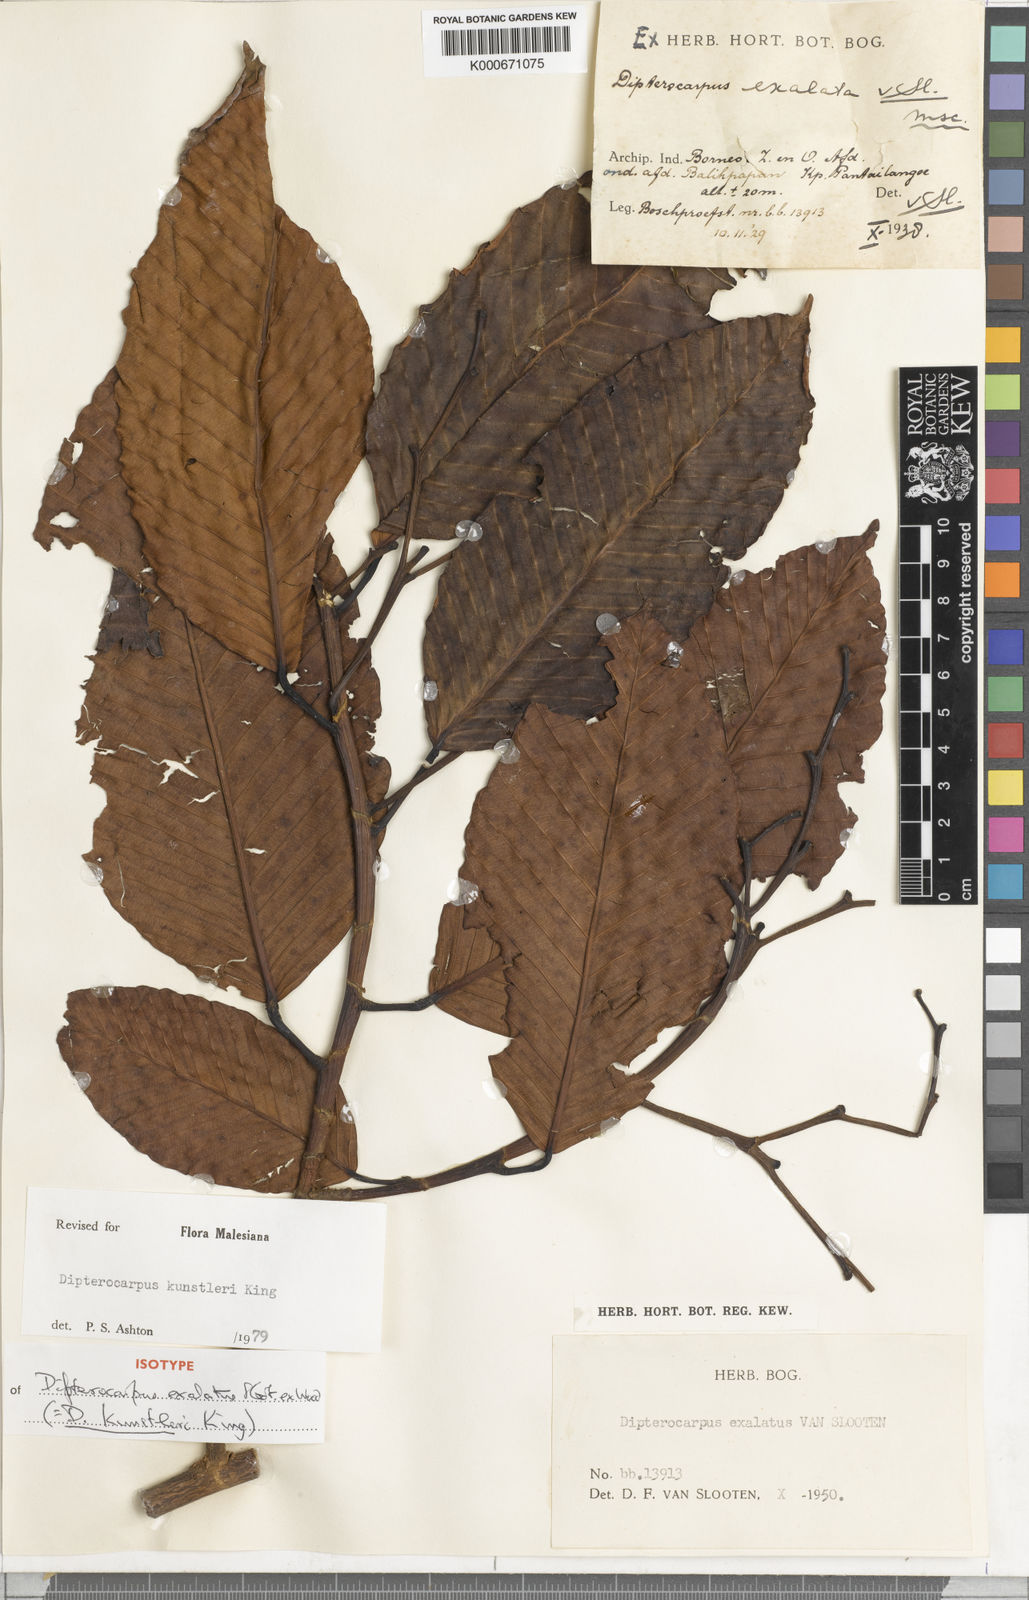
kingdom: Plantae
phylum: Tracheophyta
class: Magnoliopsida
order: Malvales
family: Dipterocarpaceae
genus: Dipterocarpus
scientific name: Dipterocarpus kunstleri
